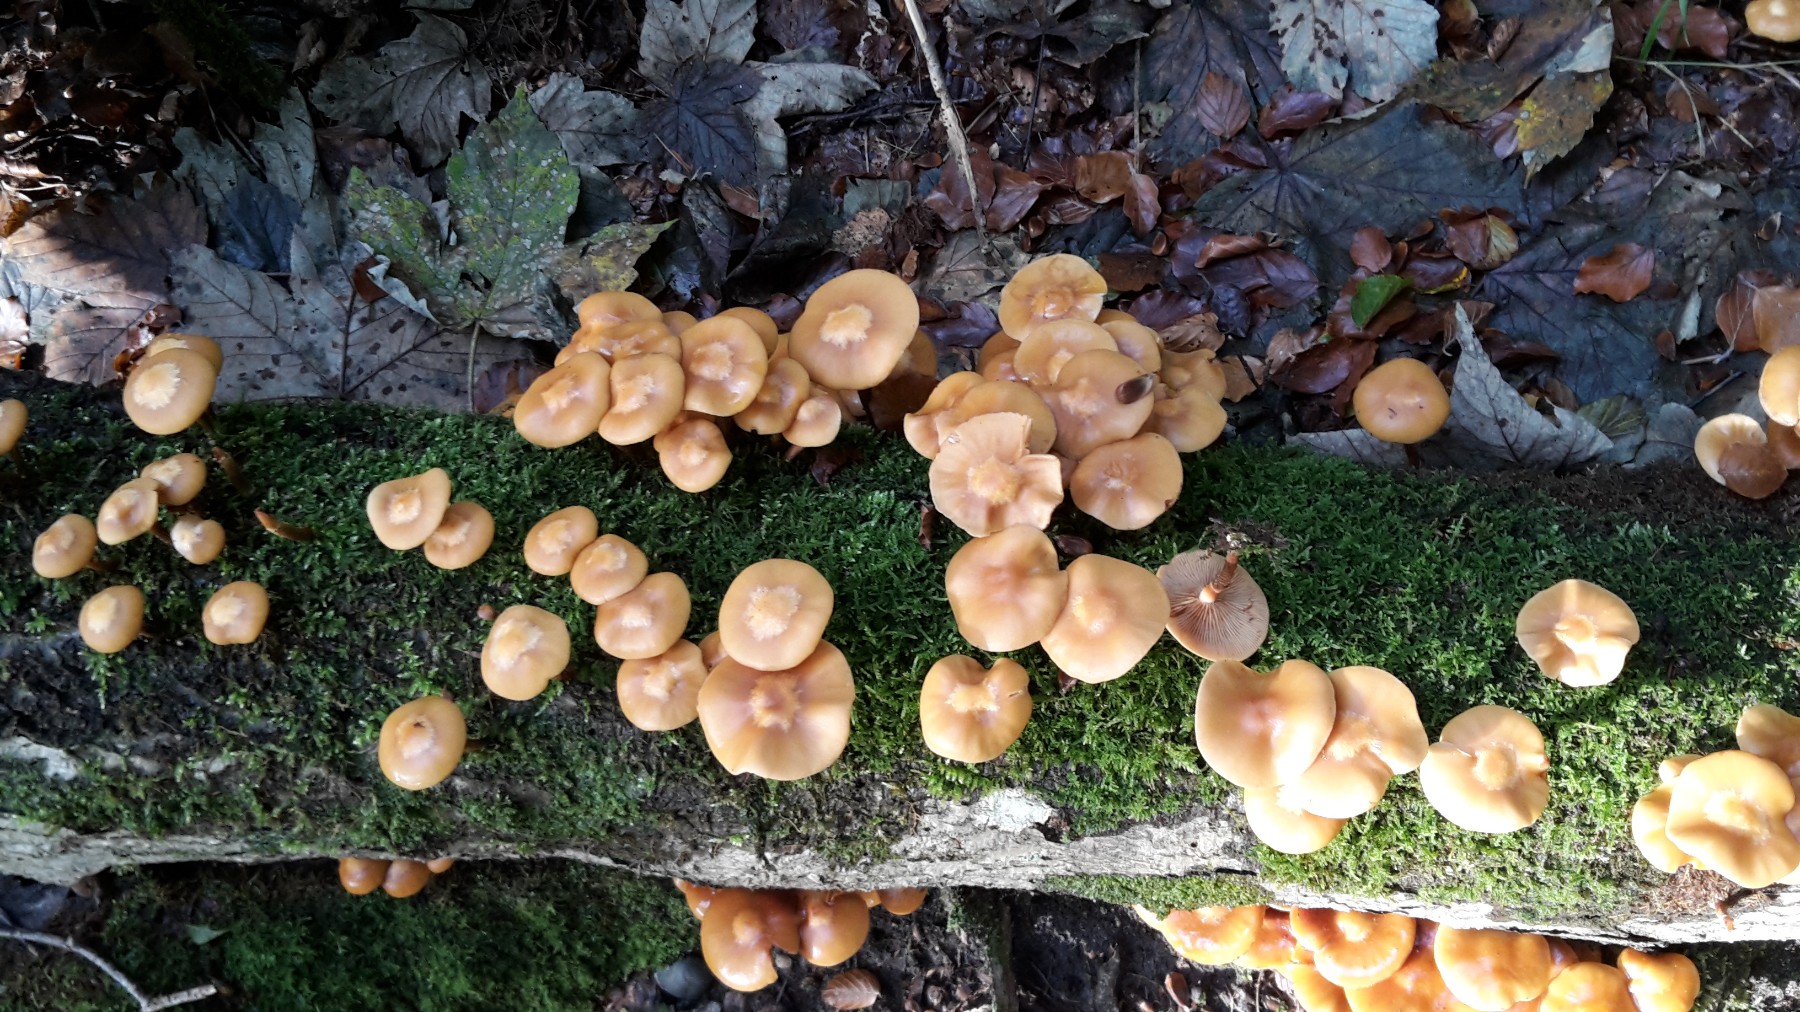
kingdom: Fungi
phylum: Basidiomycota
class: Agaricomycetes
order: Agaricales
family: Strophariaceae
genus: Kuehneromyces
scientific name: Kuehneromyces mutabilis
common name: foranderlig skælhat
